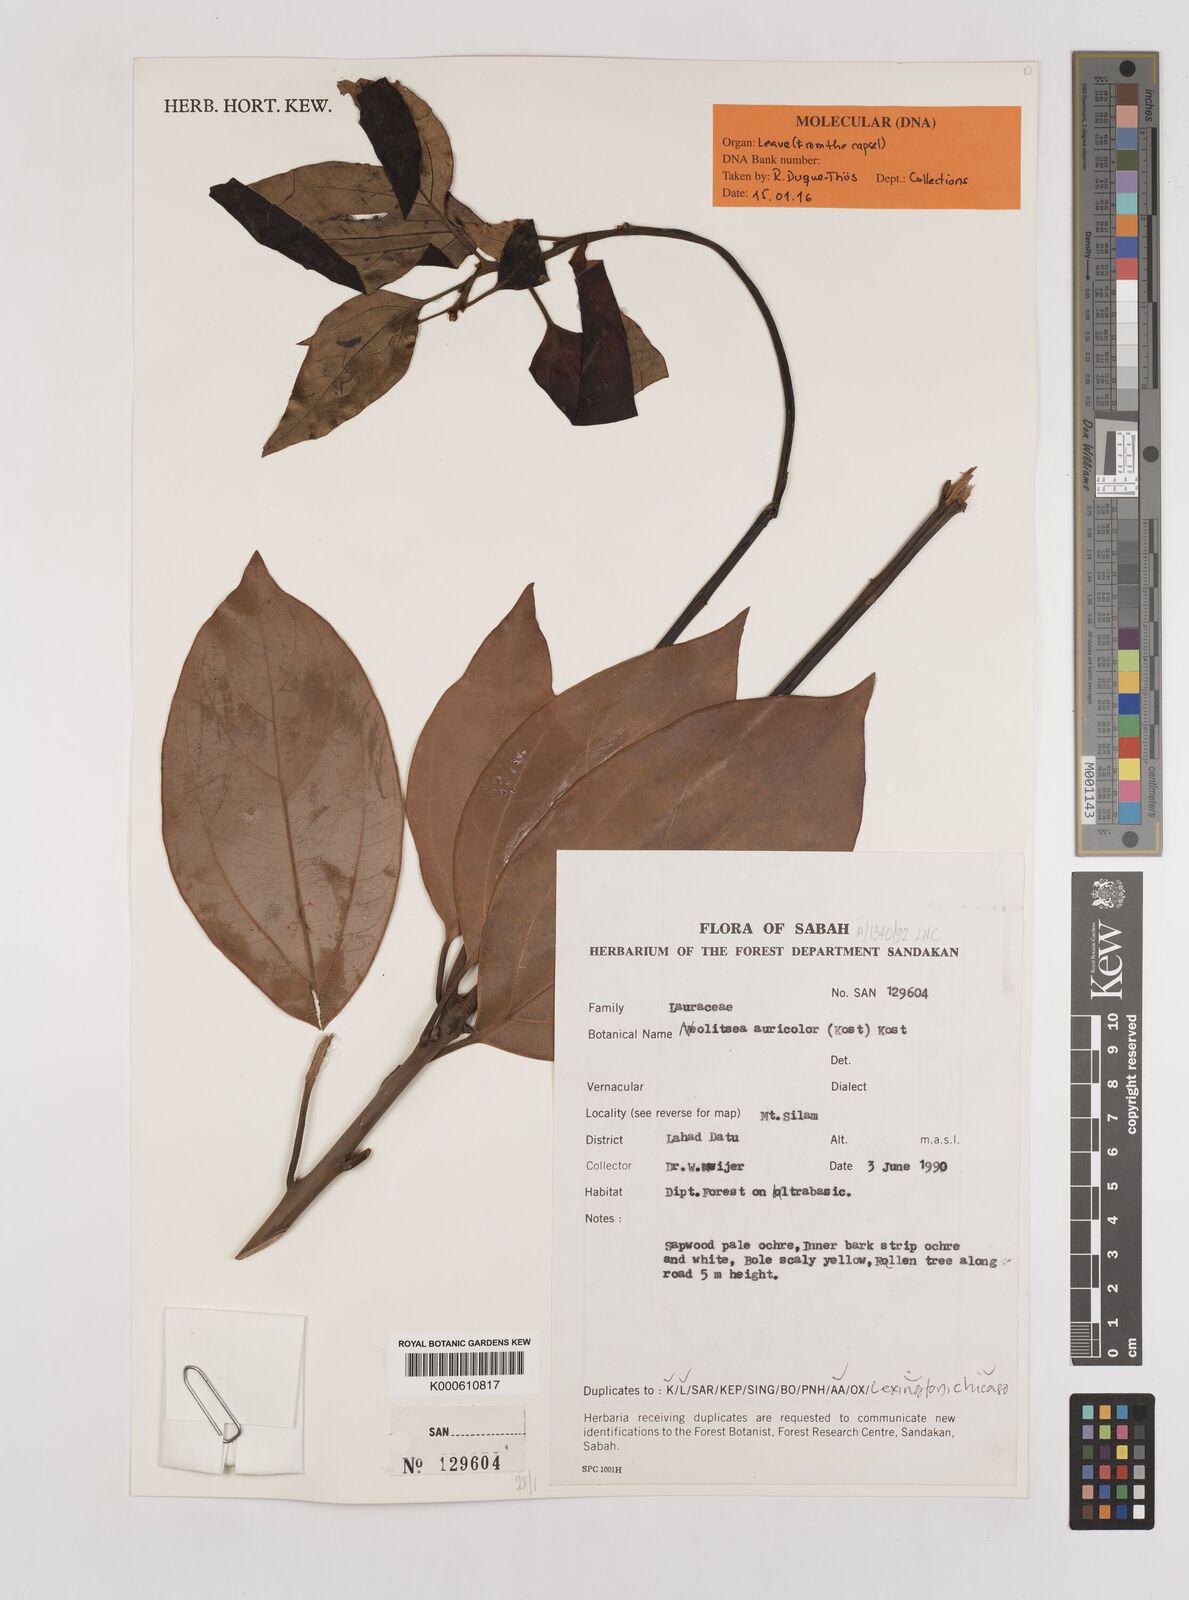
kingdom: Plantae
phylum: Tracheophyta
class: Magnoliopsida
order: Laurales
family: Lauraceae
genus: Neolitsea
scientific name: Neolitsea auricolor
